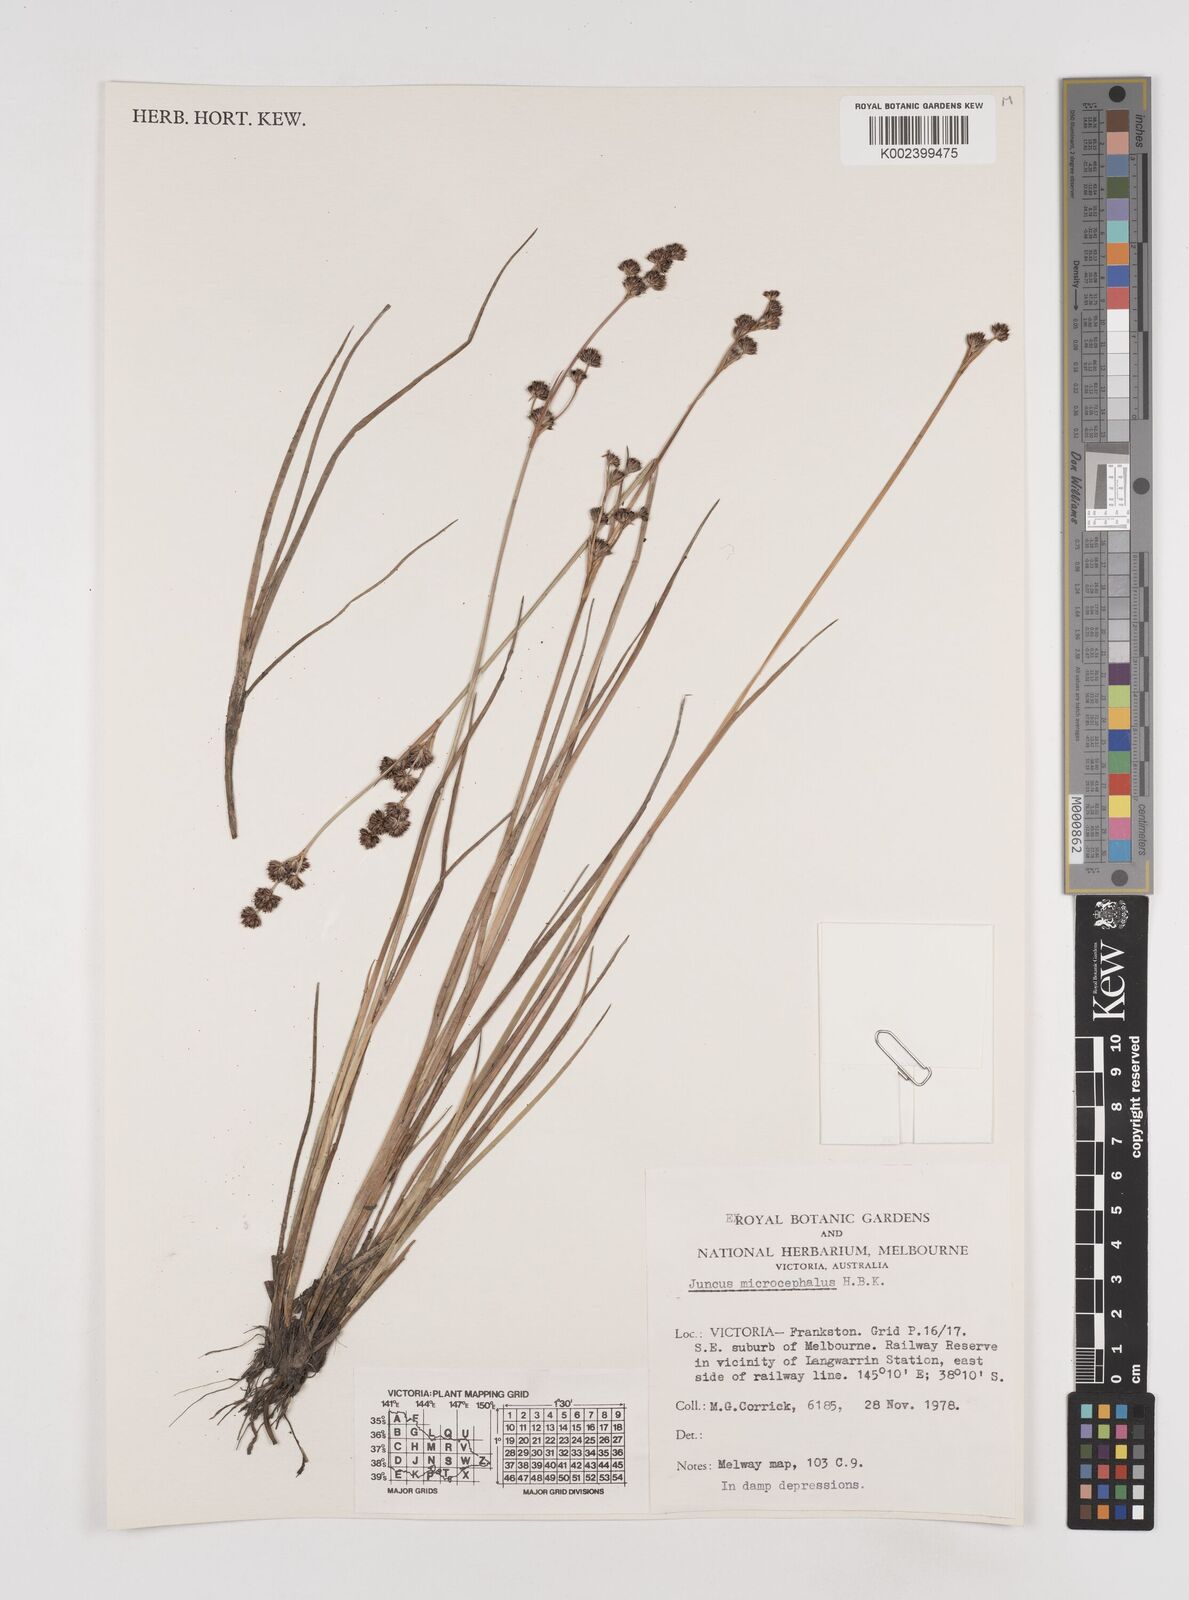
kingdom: Plantae
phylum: Tracheophyta
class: Liliopsida
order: Poales
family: Juncaceae
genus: Juncus
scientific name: Juncus
